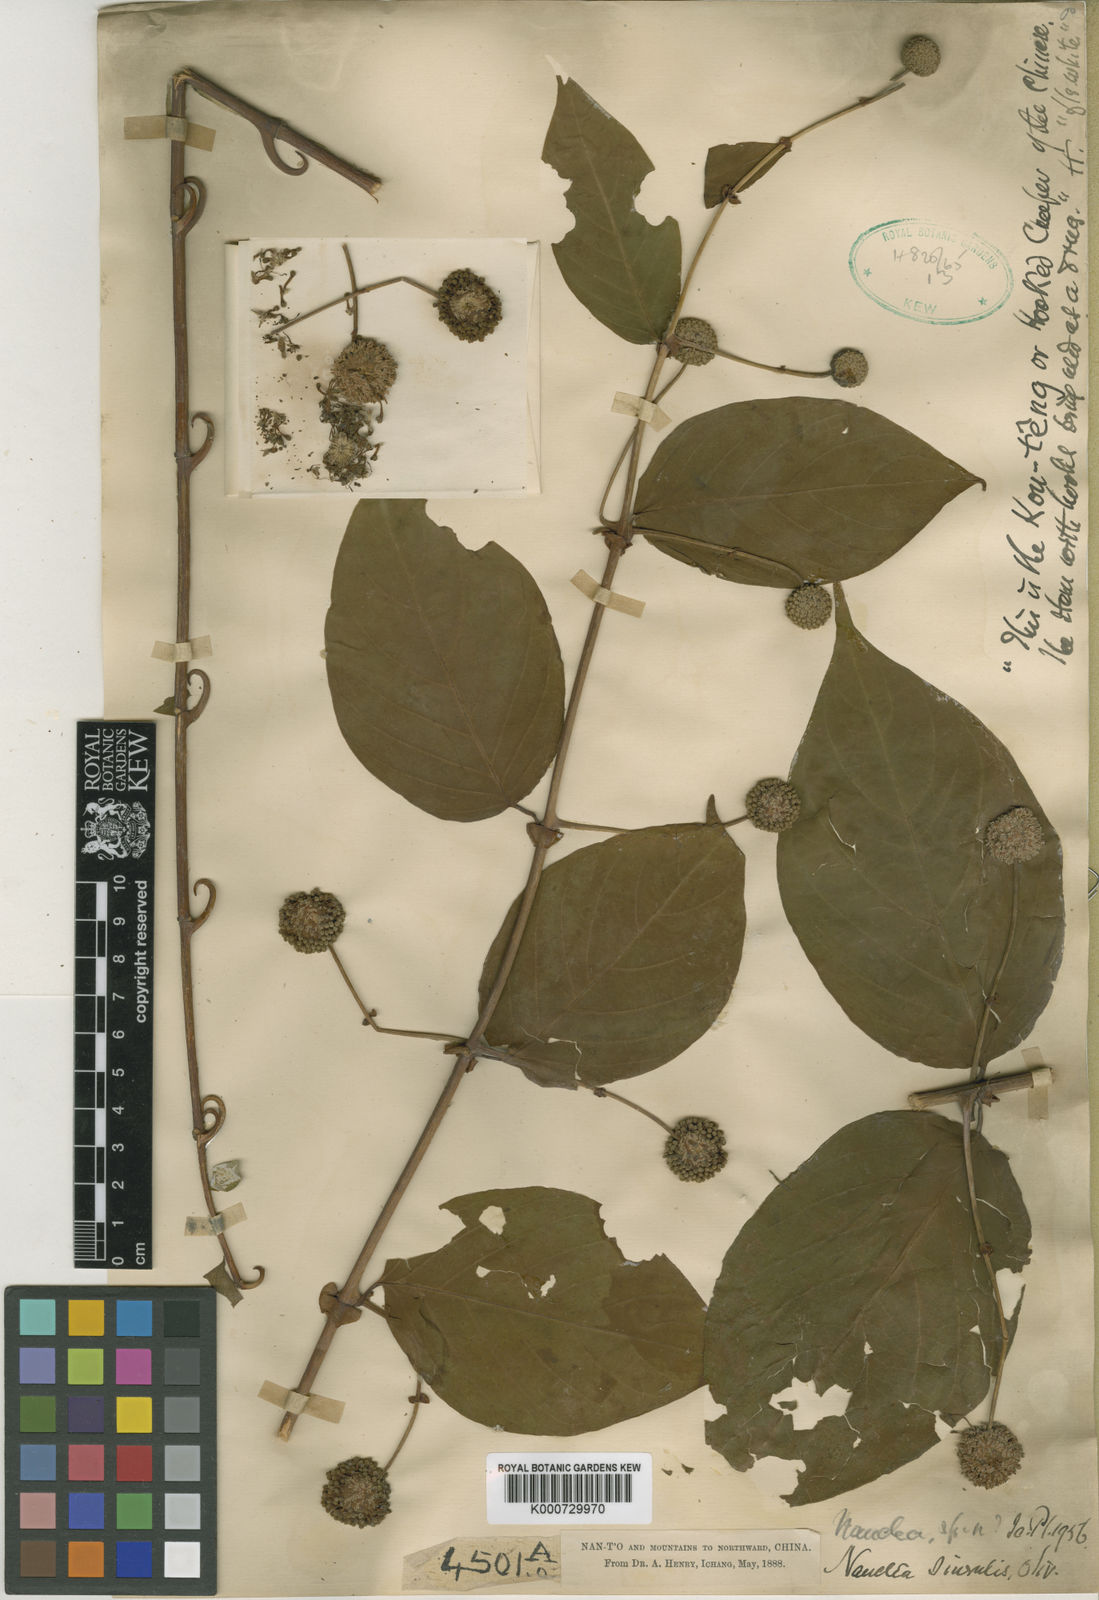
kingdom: Plantae
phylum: Tracheophyta
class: Magnoliopsida
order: Gentianales
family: Rubiaceae
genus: Uncaria
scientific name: Uncaria sinensis
